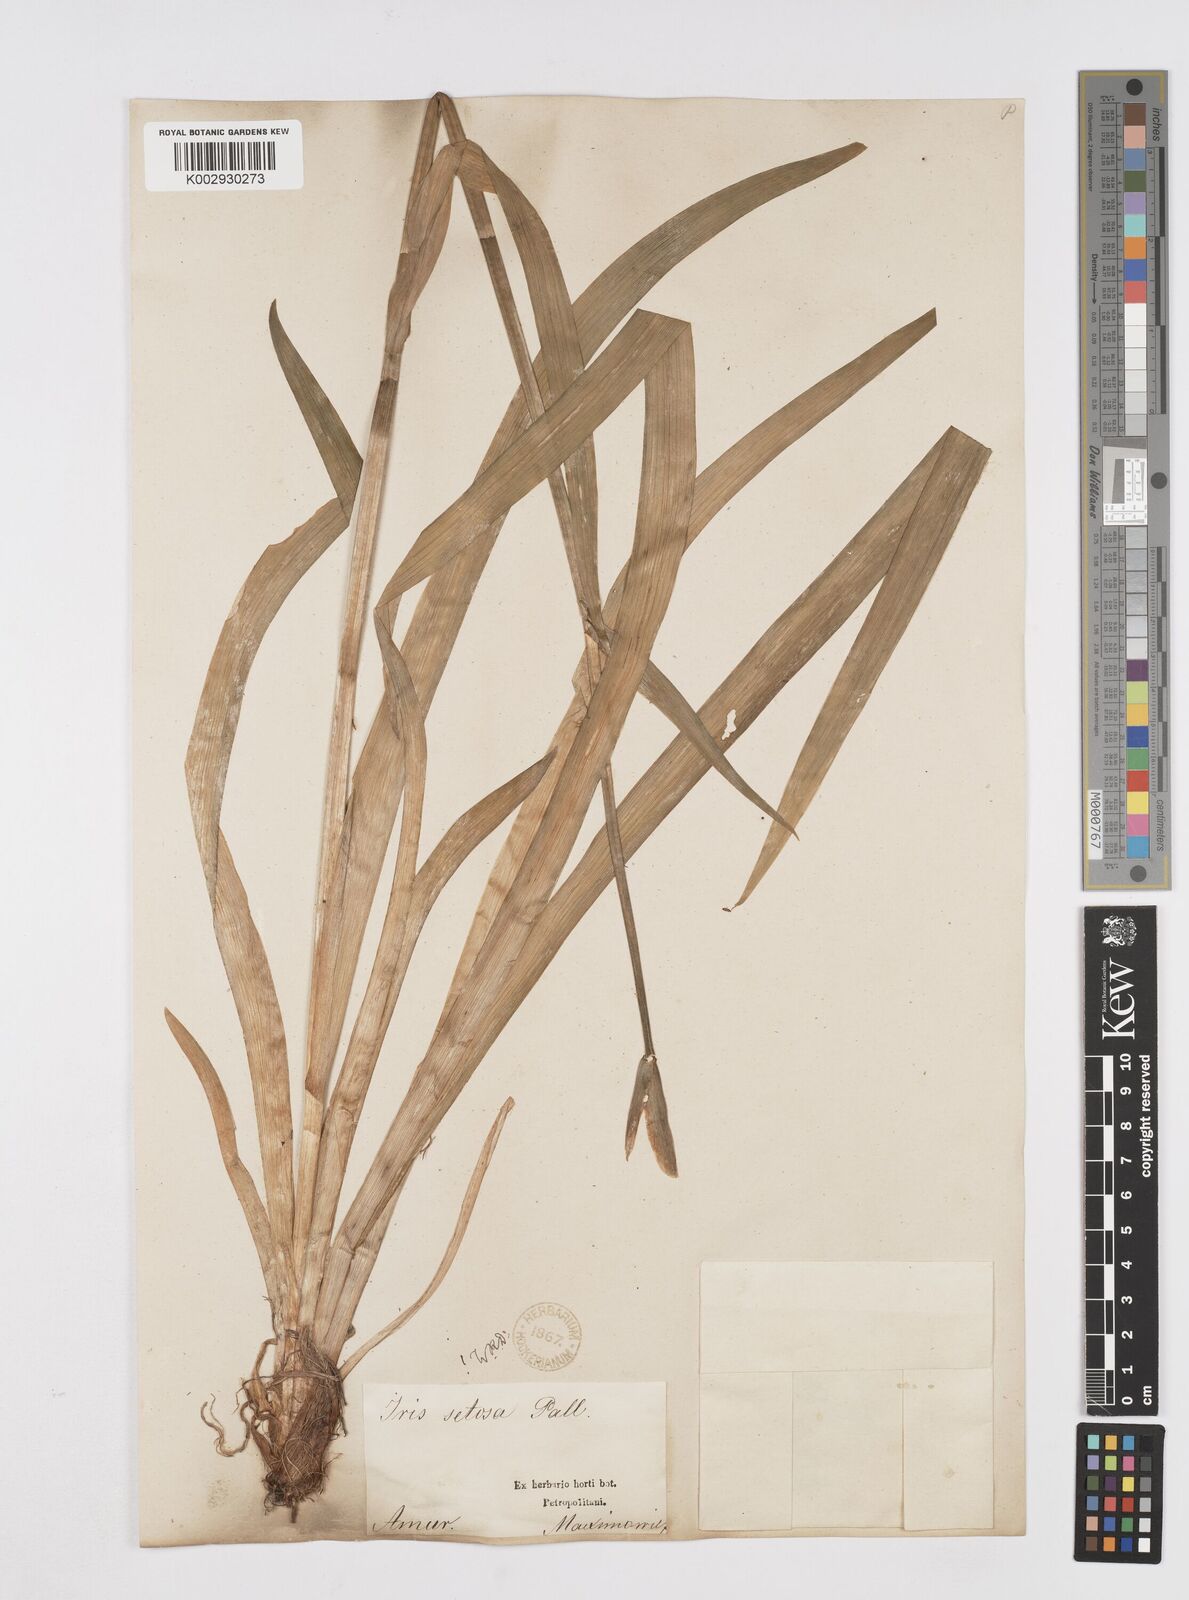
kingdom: Plantae
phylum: Tracheophyta
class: Liliopsida
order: Asparagales
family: Iridaceae
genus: Iris
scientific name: Iris setosa
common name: Arctic blue flag
